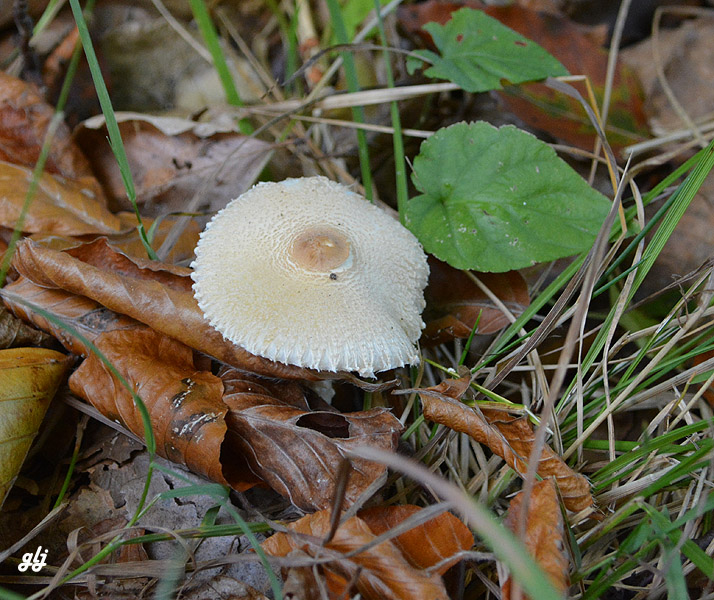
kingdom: Fungi
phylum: Basidiomycota
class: Agaricomycetes
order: Agaricales
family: Agaricaceae
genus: Lepiota
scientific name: Lepiota clypeolaria
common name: flosset parasolhat
